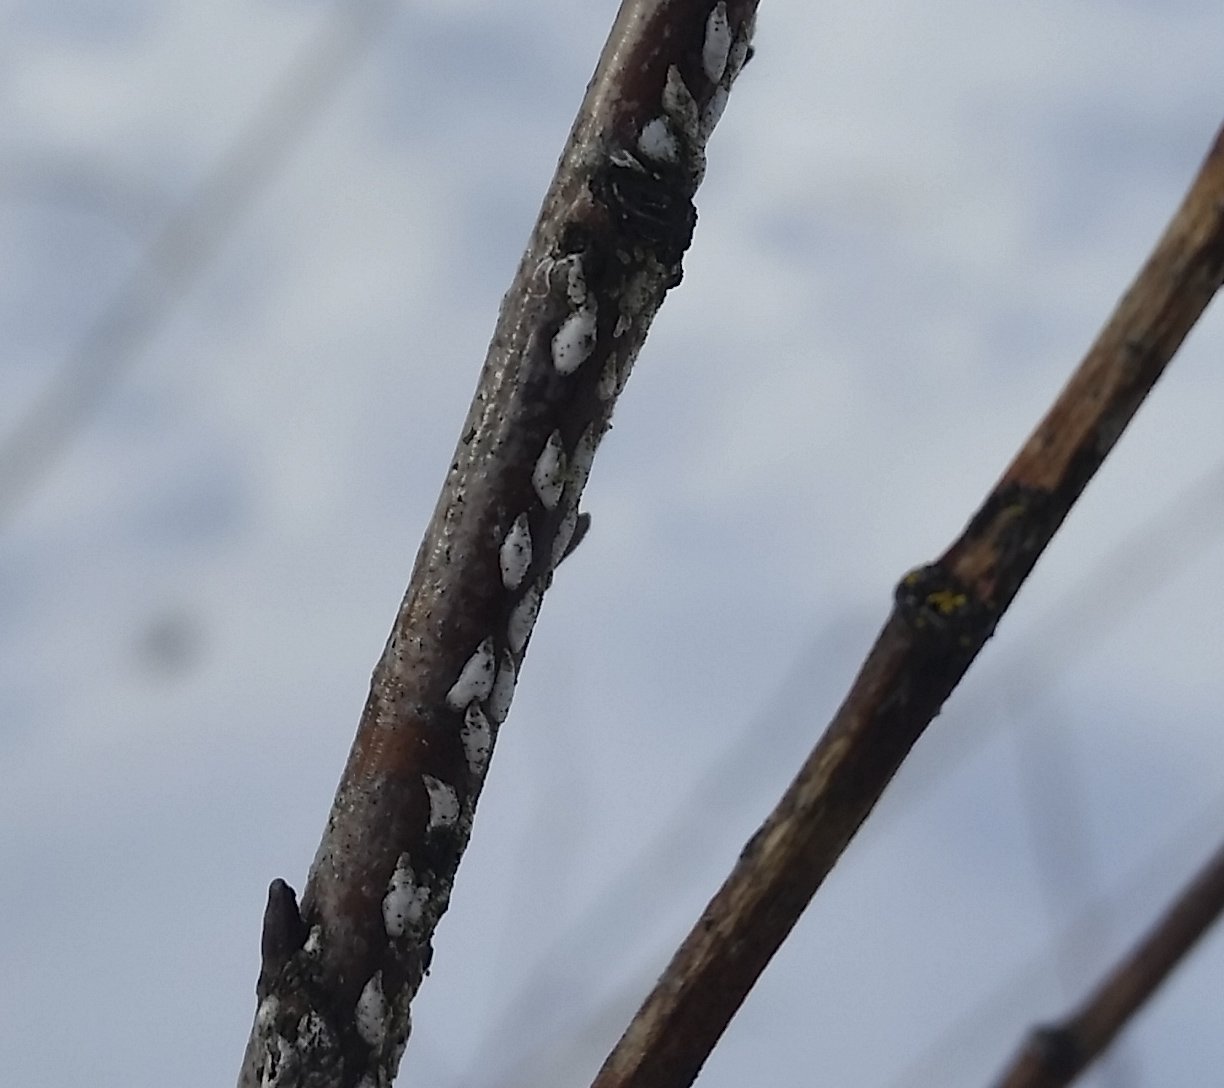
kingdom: Animalia
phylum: Arthropoda
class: Insecta
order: Hemiptera
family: Diaspididae
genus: Chionaspis
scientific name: Chionaspis salicis
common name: Willow scale
